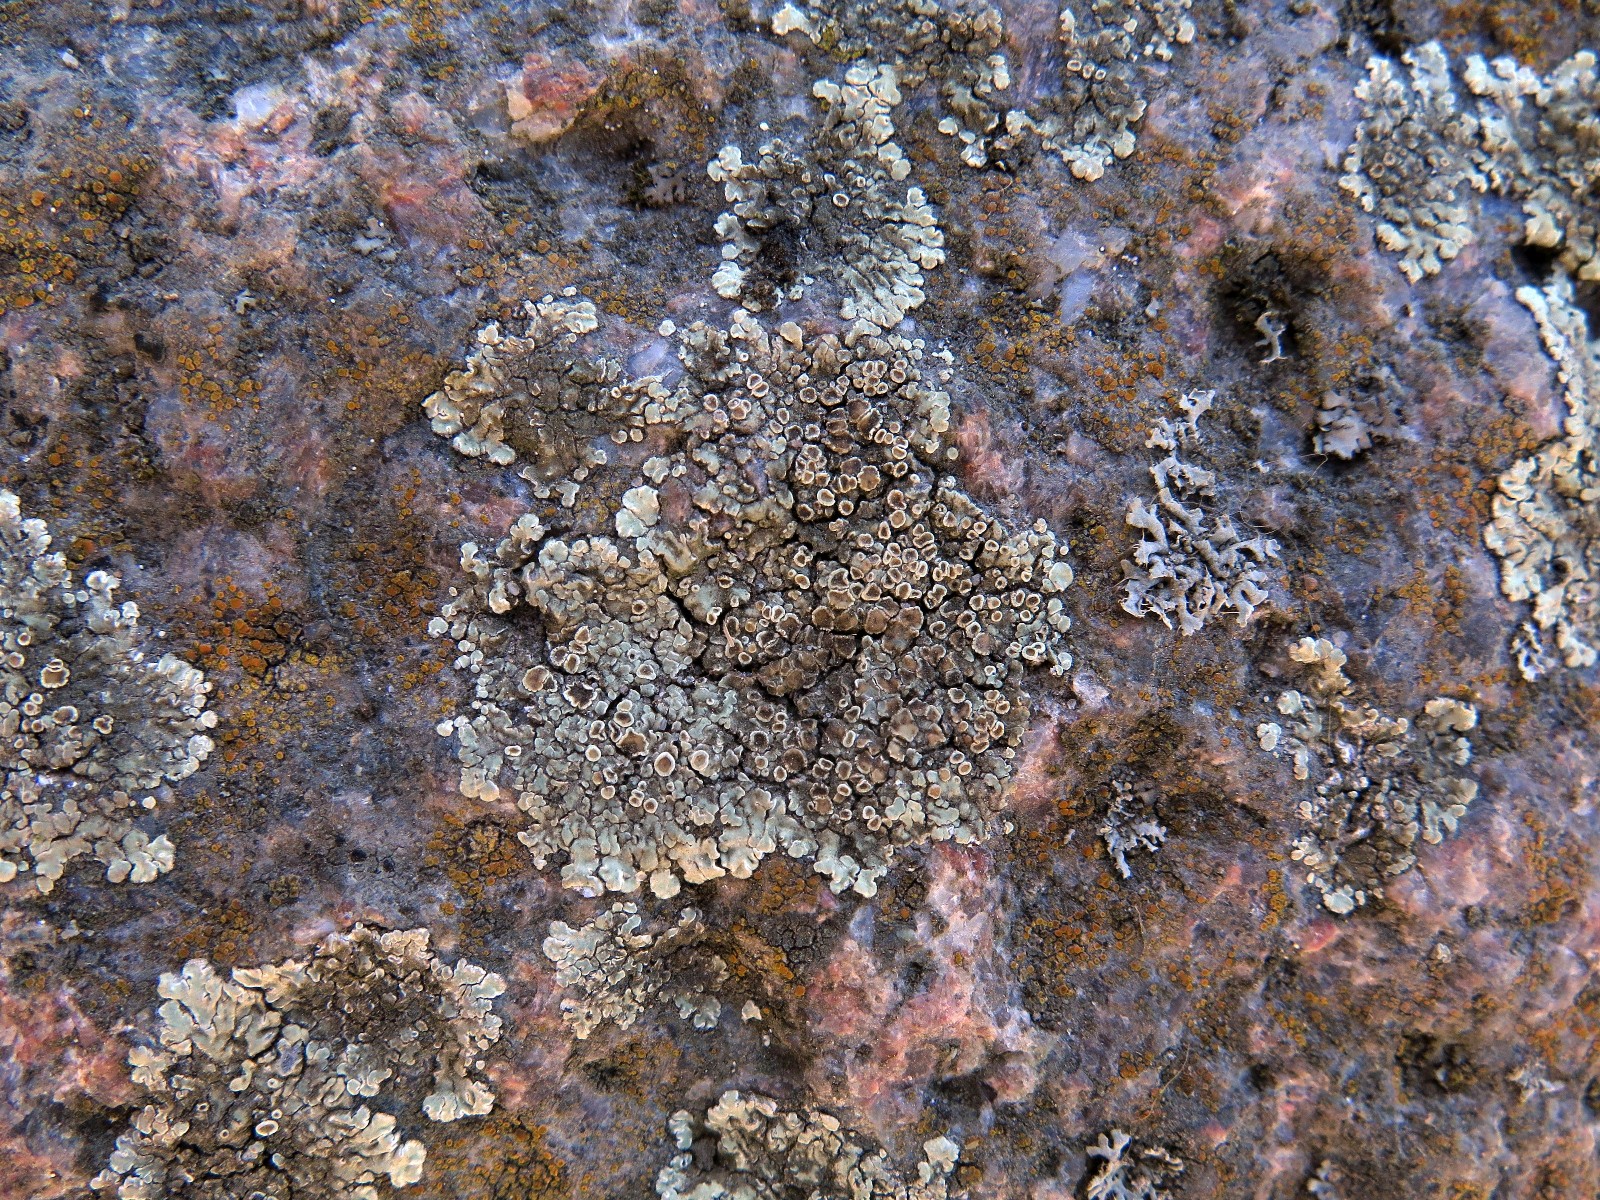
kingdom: Fungi
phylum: Ascomycota
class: Lecanoromycetes
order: Lecanorales
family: Lecanoraceae
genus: Protoparmeliopsis
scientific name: Protoparmeliopsis muralis
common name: randfliget kantskivelav
